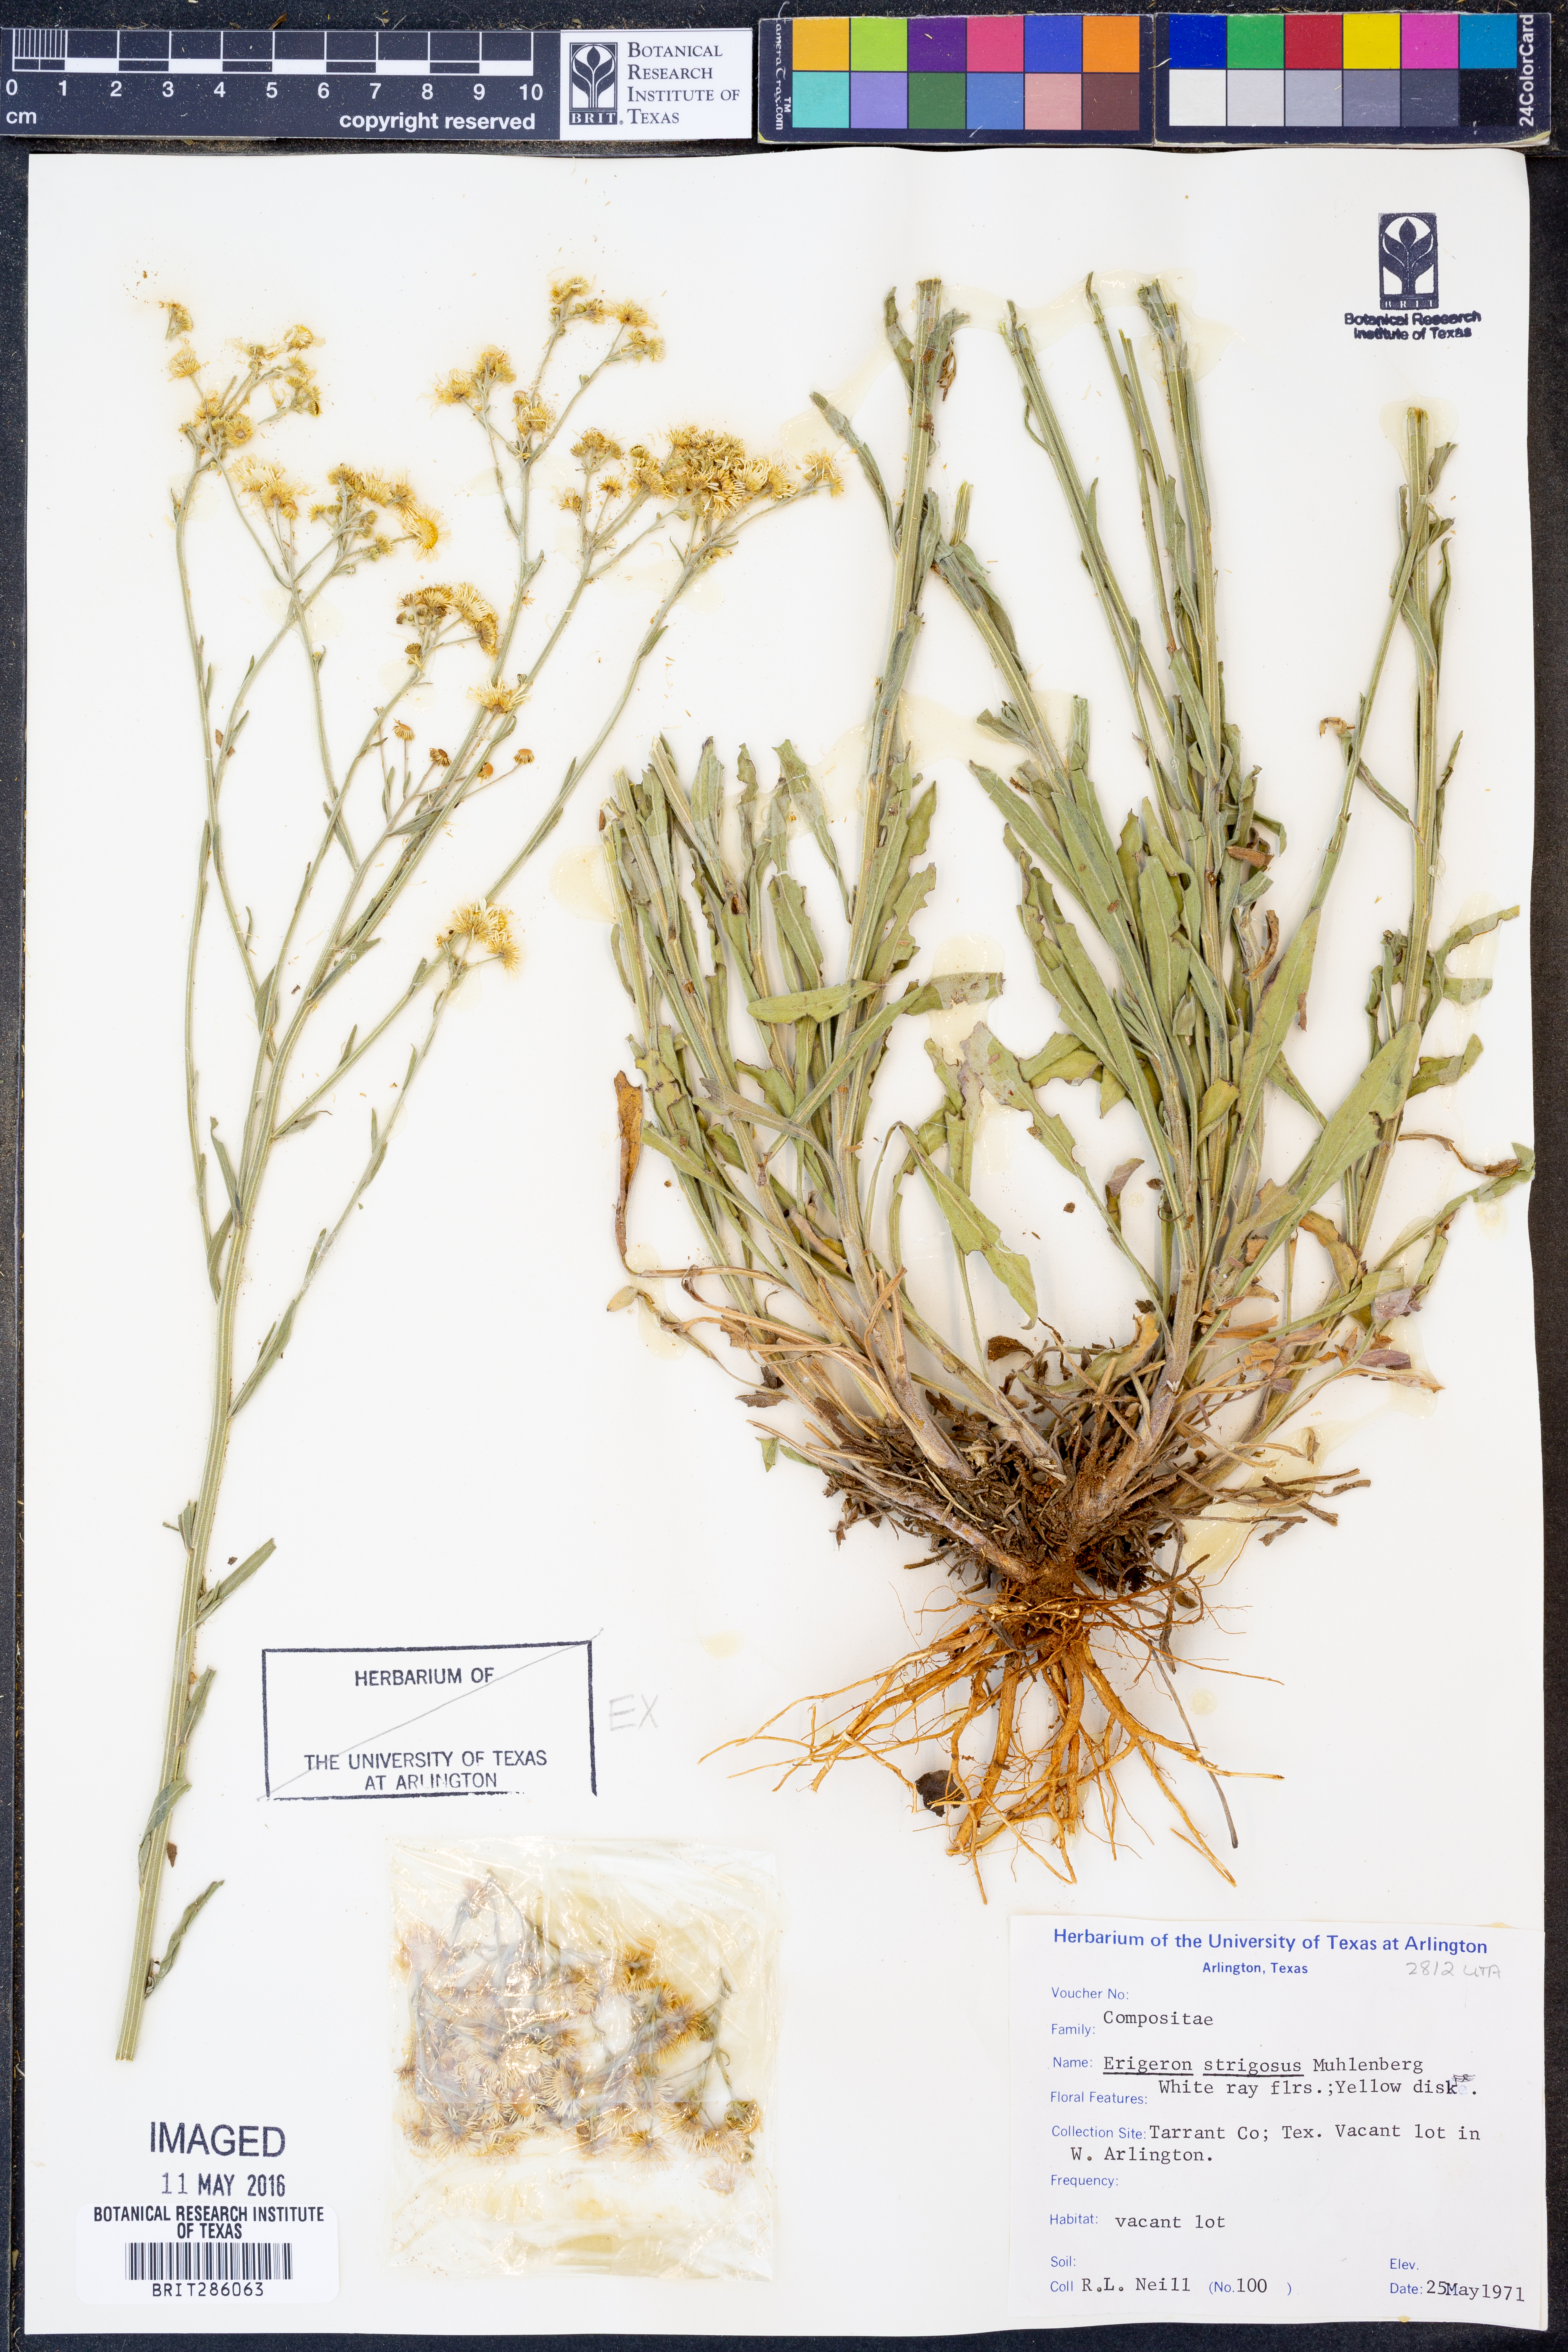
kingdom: Plantae
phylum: Tracheophyta
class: Magnoliopsida
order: Asterales
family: Asteraceae
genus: Erigeron
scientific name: Erigeron strigosus
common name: Common eastern fleabane
